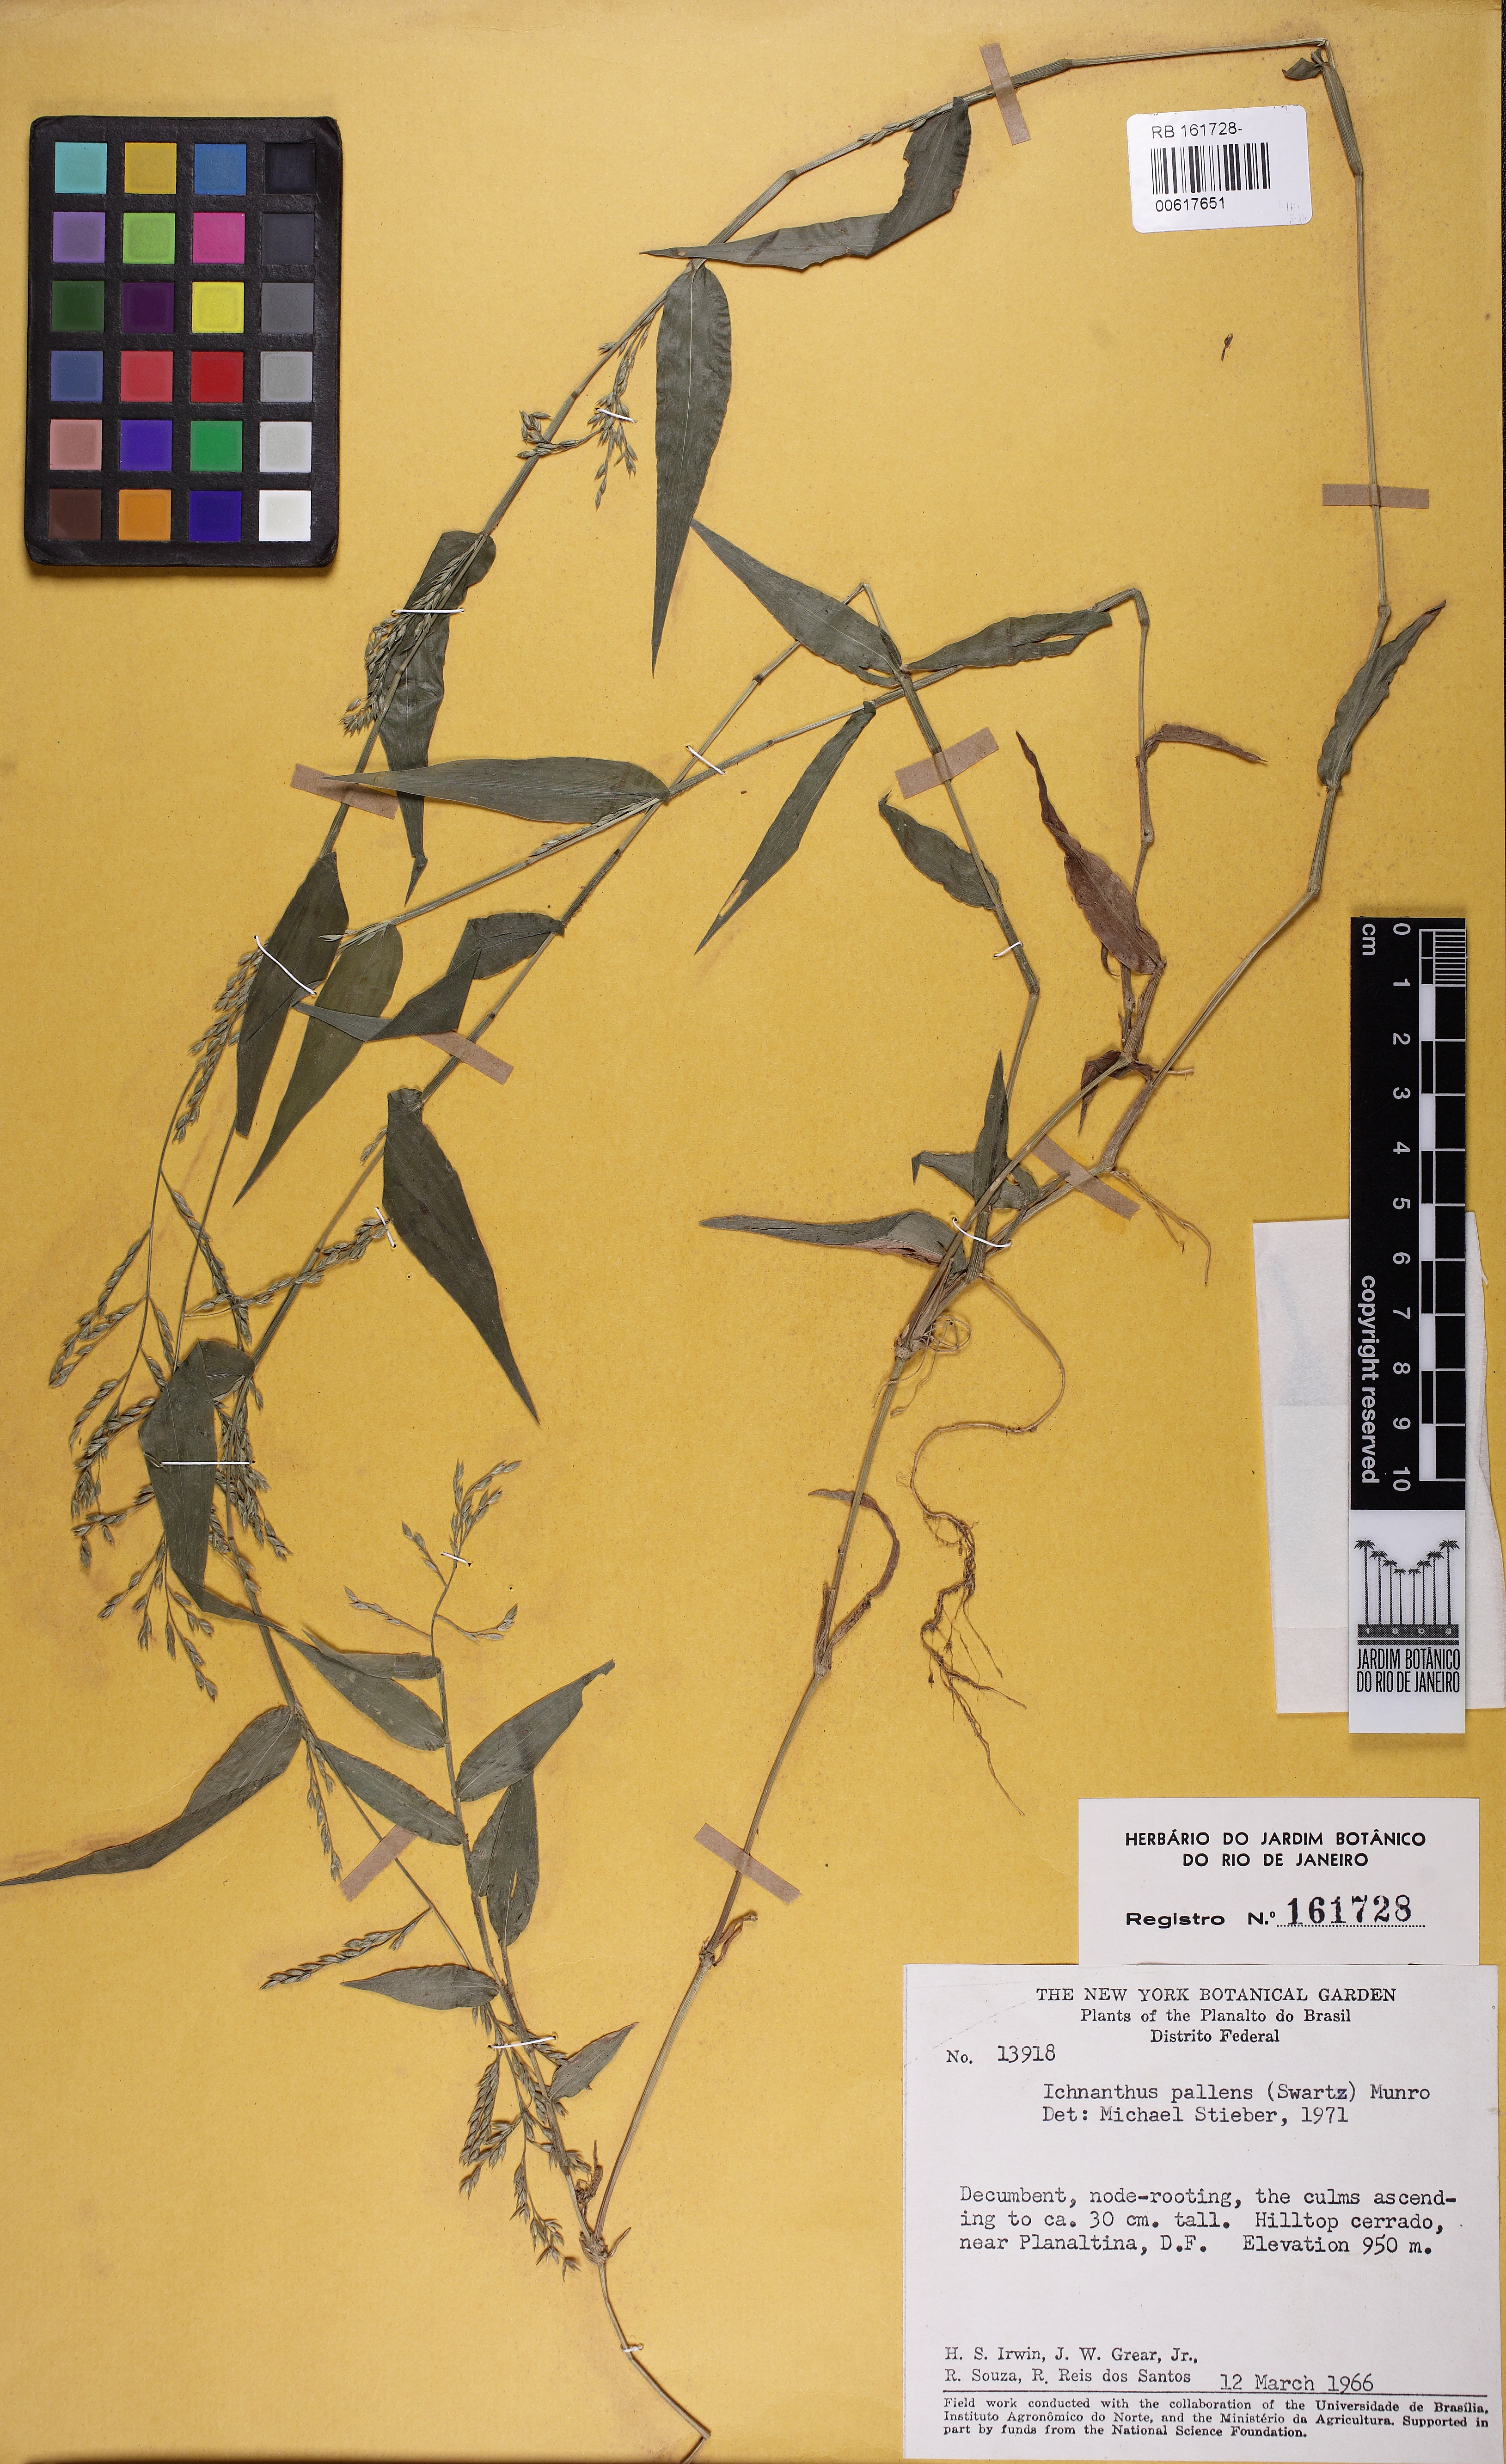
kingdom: Plantae
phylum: Tracheophyta
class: Liliopsida
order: Poales
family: Poaceae
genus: Ichnanthus
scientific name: Ichnanthus pallens
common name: Water grass
